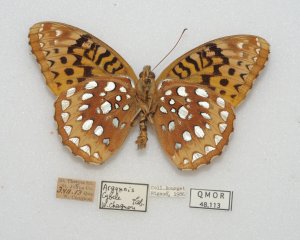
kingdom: Animalia
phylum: Arthropoda
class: Insecta
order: Lepidoptera
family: Nymphalidae
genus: Speyeria
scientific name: Speyeria cybele
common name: Great Spangled Fritillary
